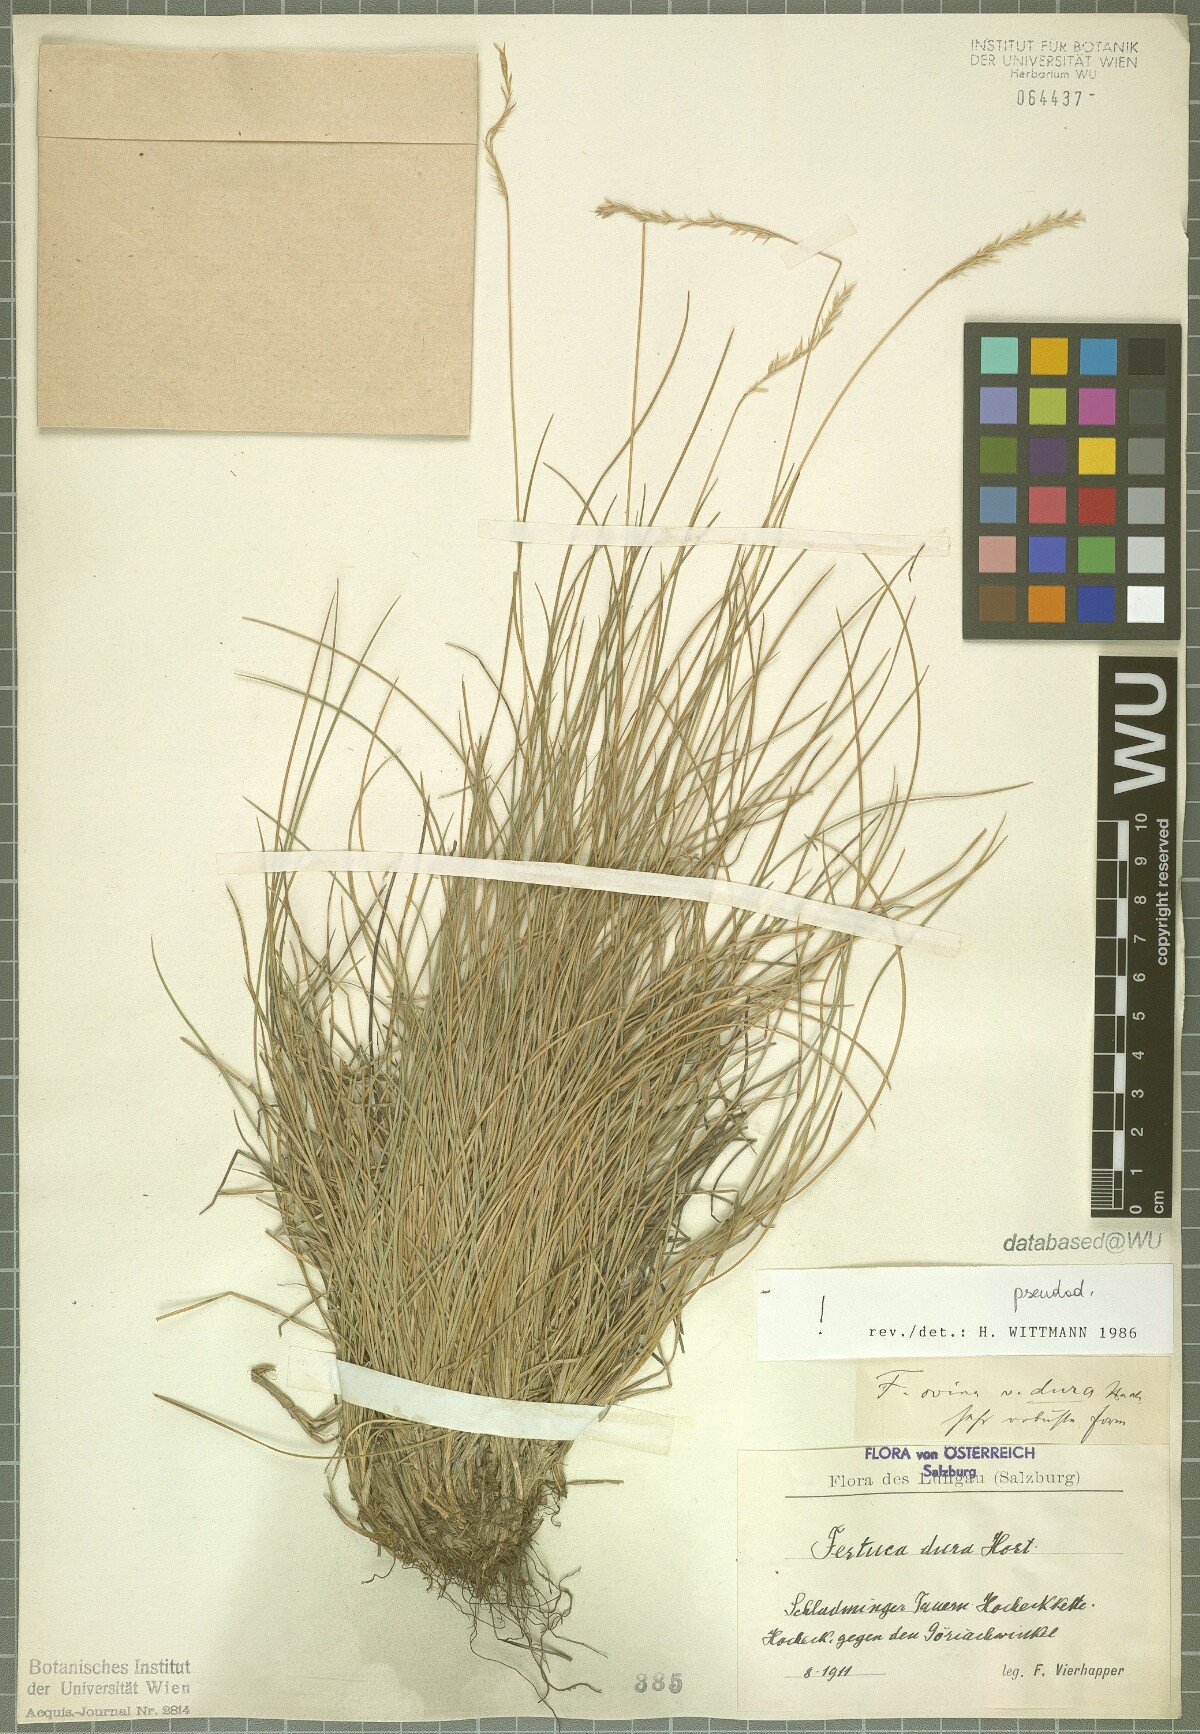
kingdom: Plantae
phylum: Tracheophyta
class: Liliopsida
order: Poales
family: Poaceae
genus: Festuca
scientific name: Festuca pseudodura
